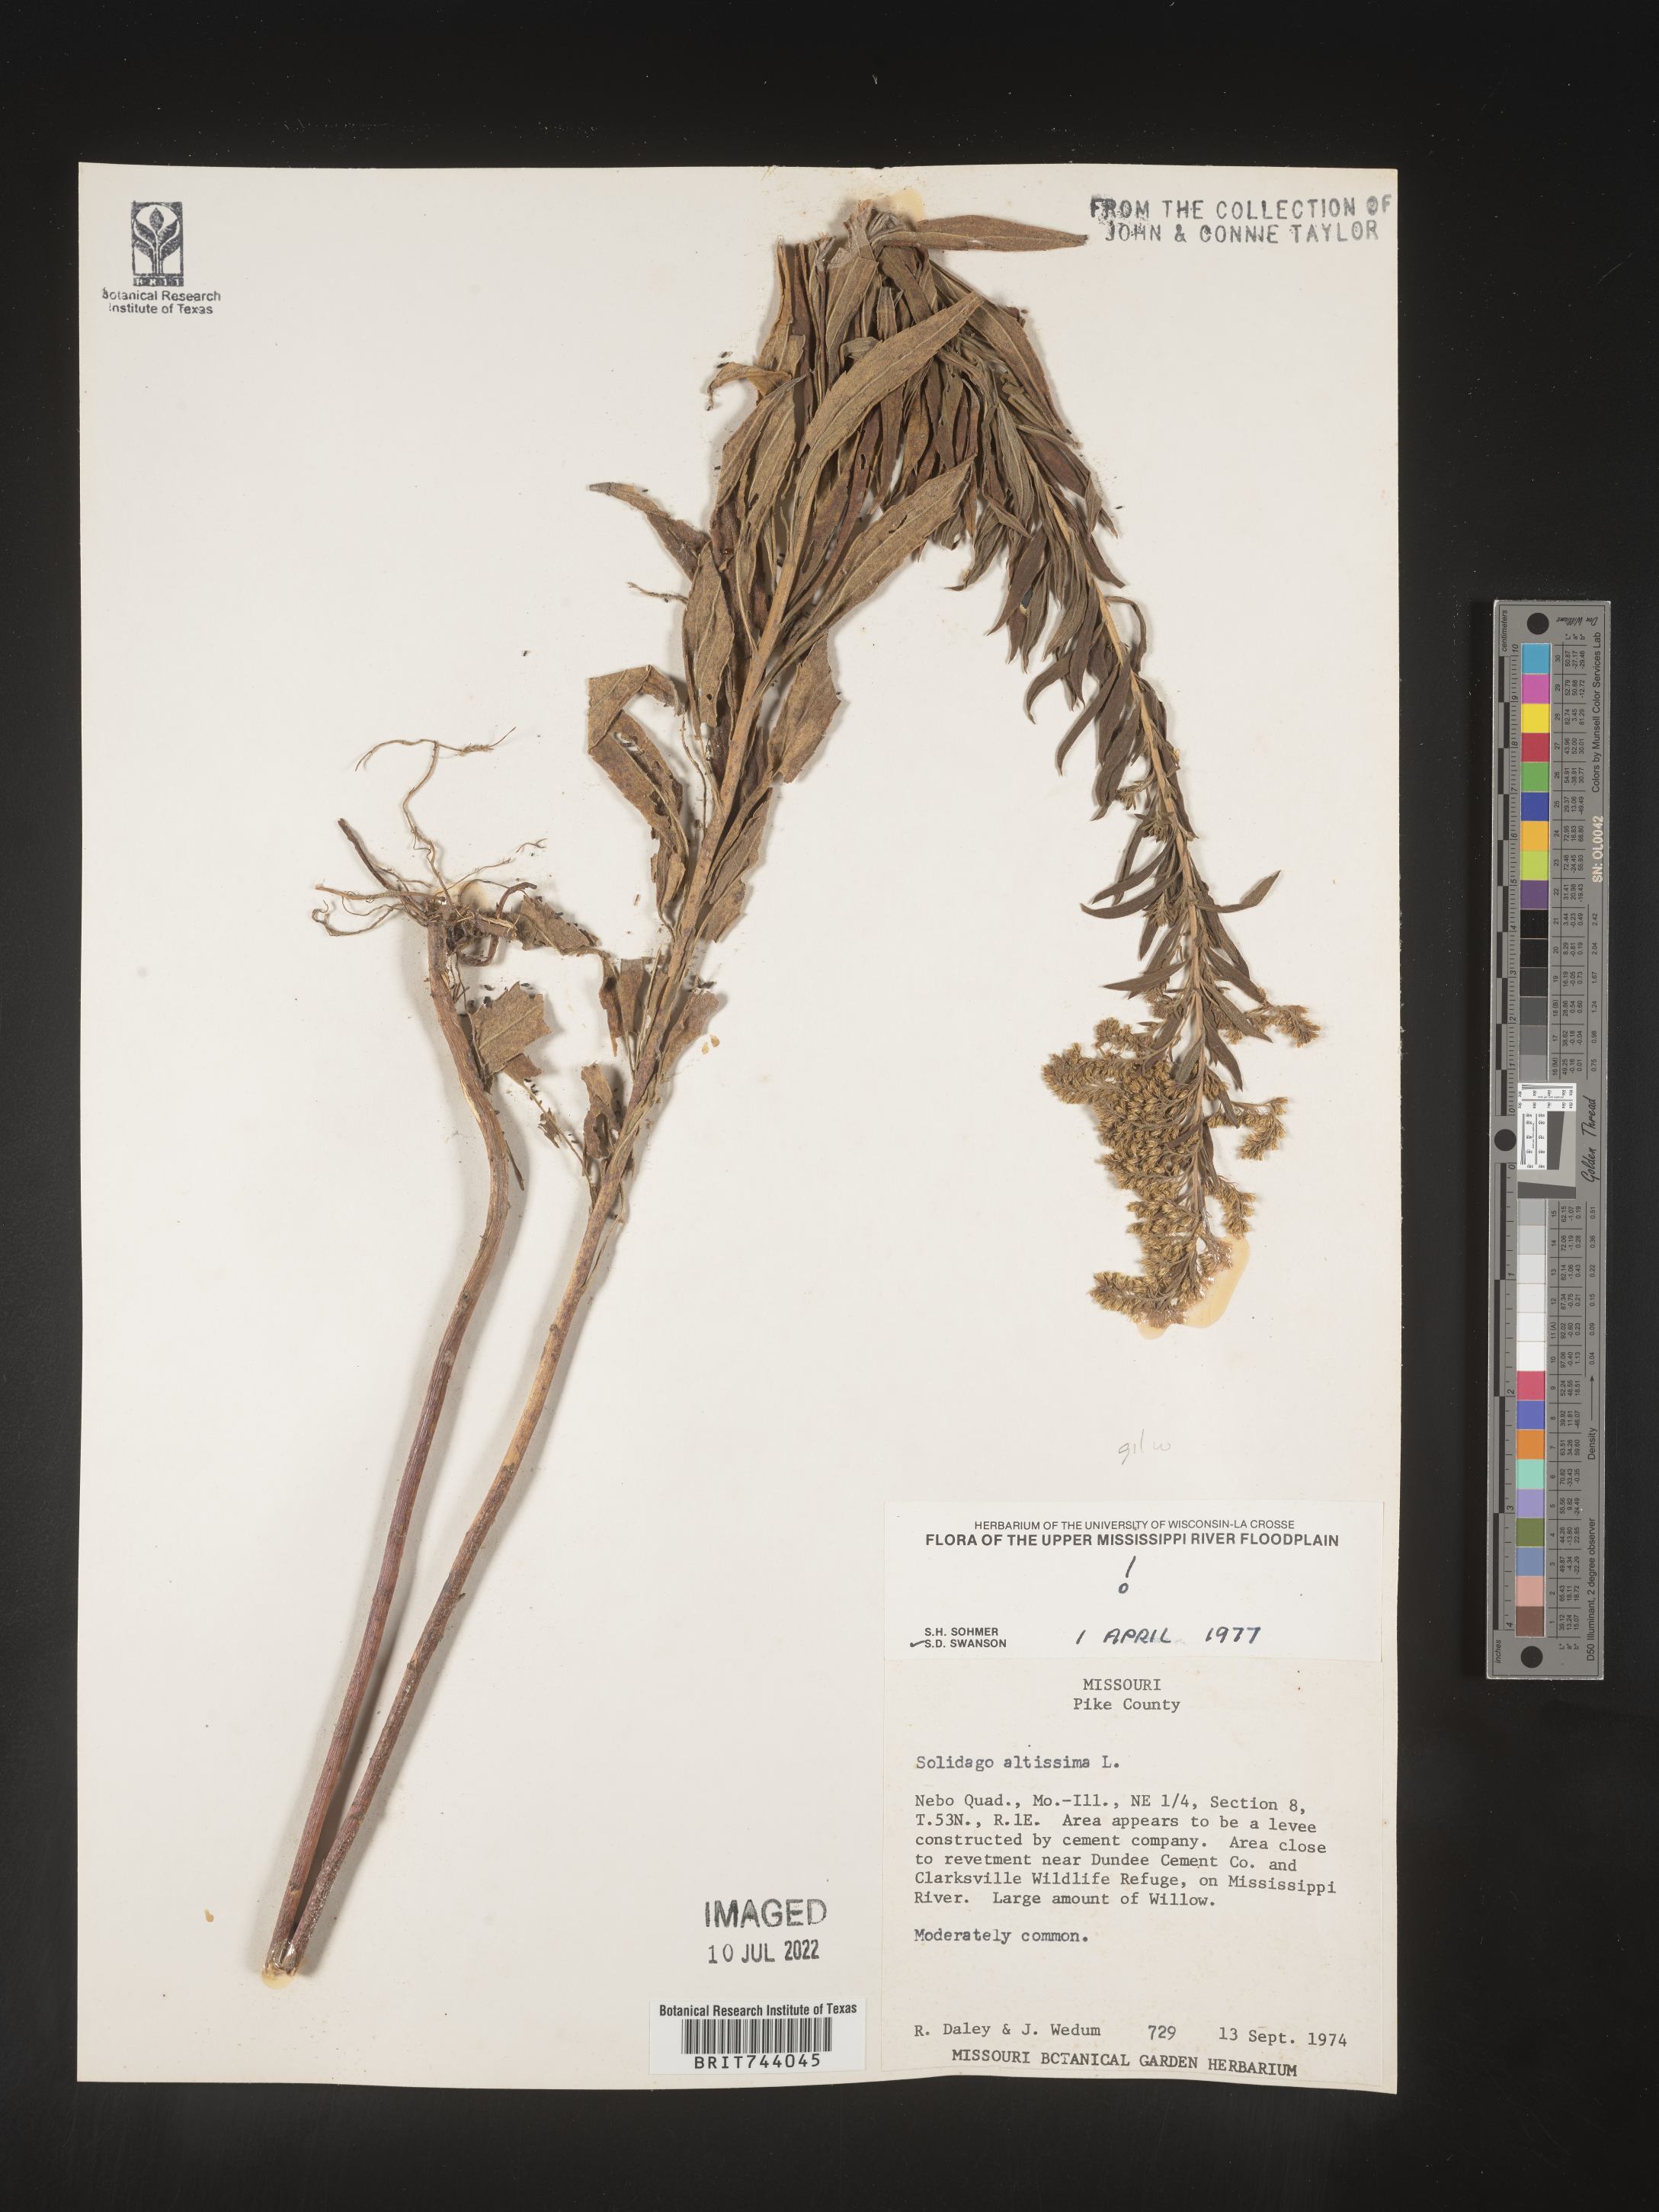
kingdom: Plantae
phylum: Tracheophyta
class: Magnoliopsida
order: Asterales
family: Asteraceae
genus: Solidago
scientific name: Solidago altissima
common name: Late goldenrod
